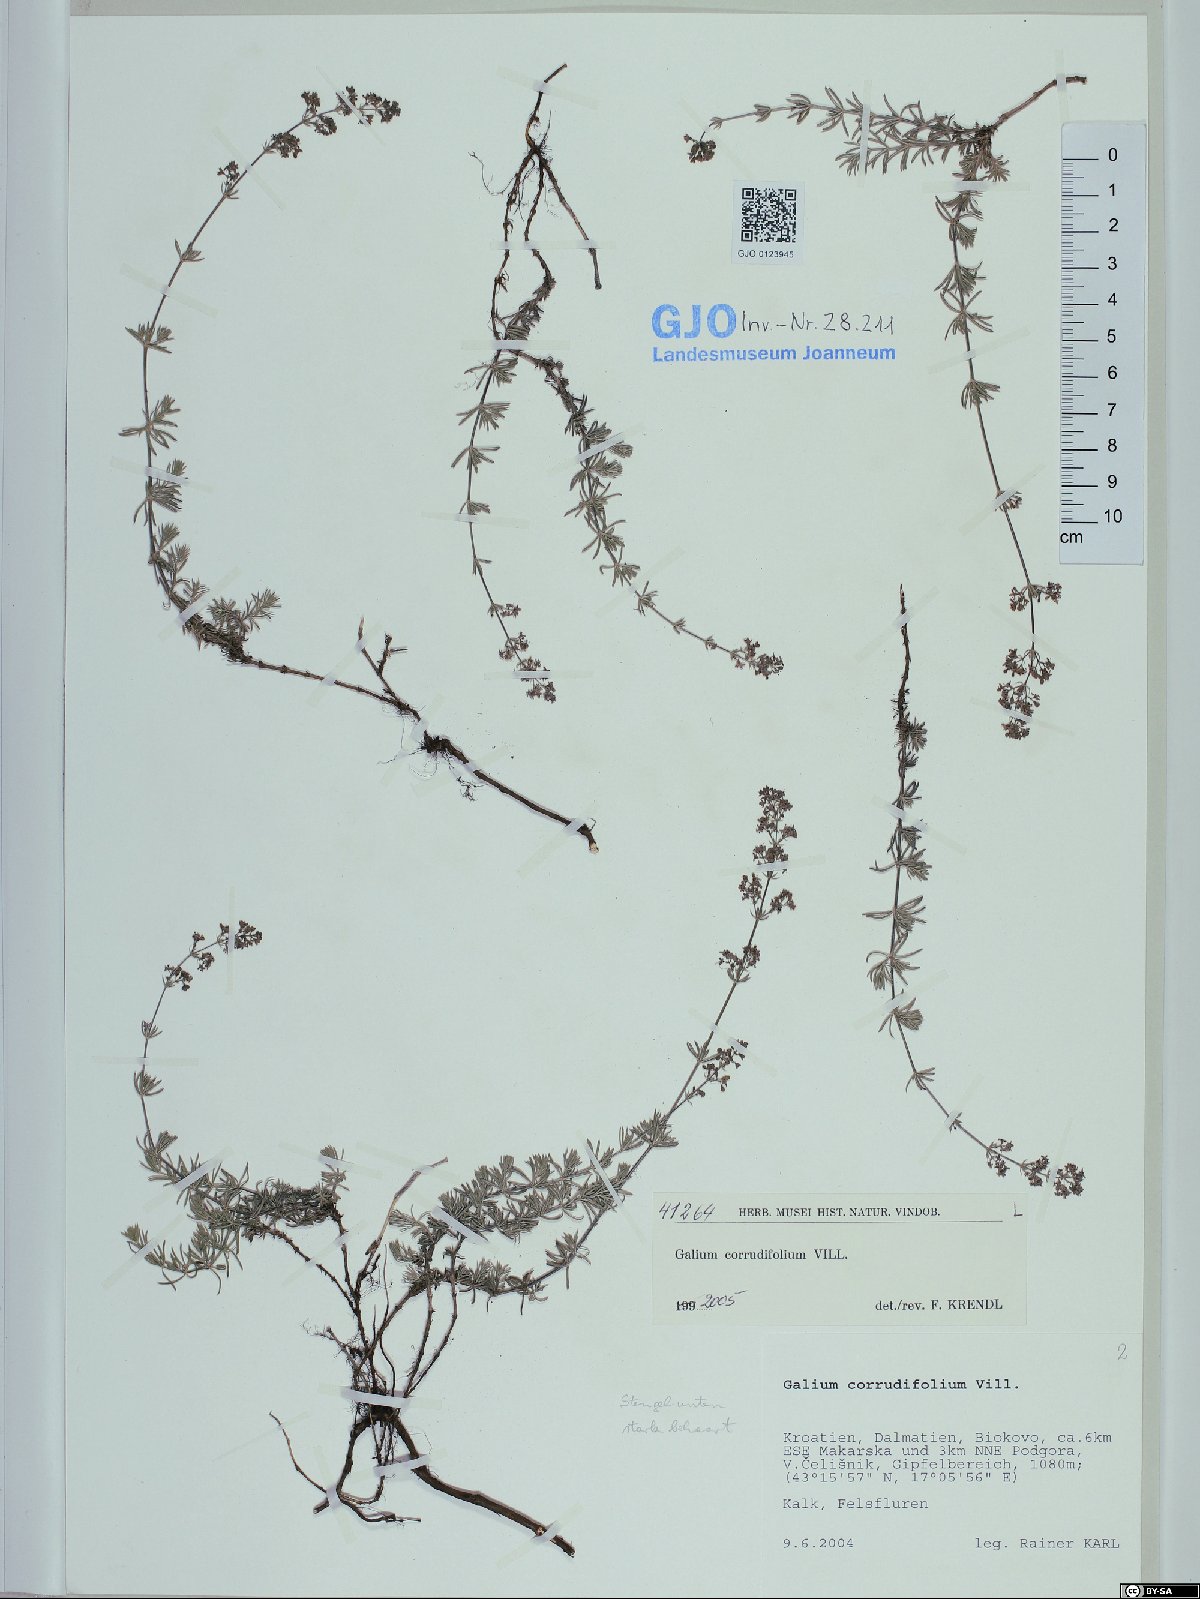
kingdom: Plantae
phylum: Tracheophyta
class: Magnoliopsida
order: Gentianales
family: Rubiaceae
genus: Galium
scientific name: Galium lucidum
